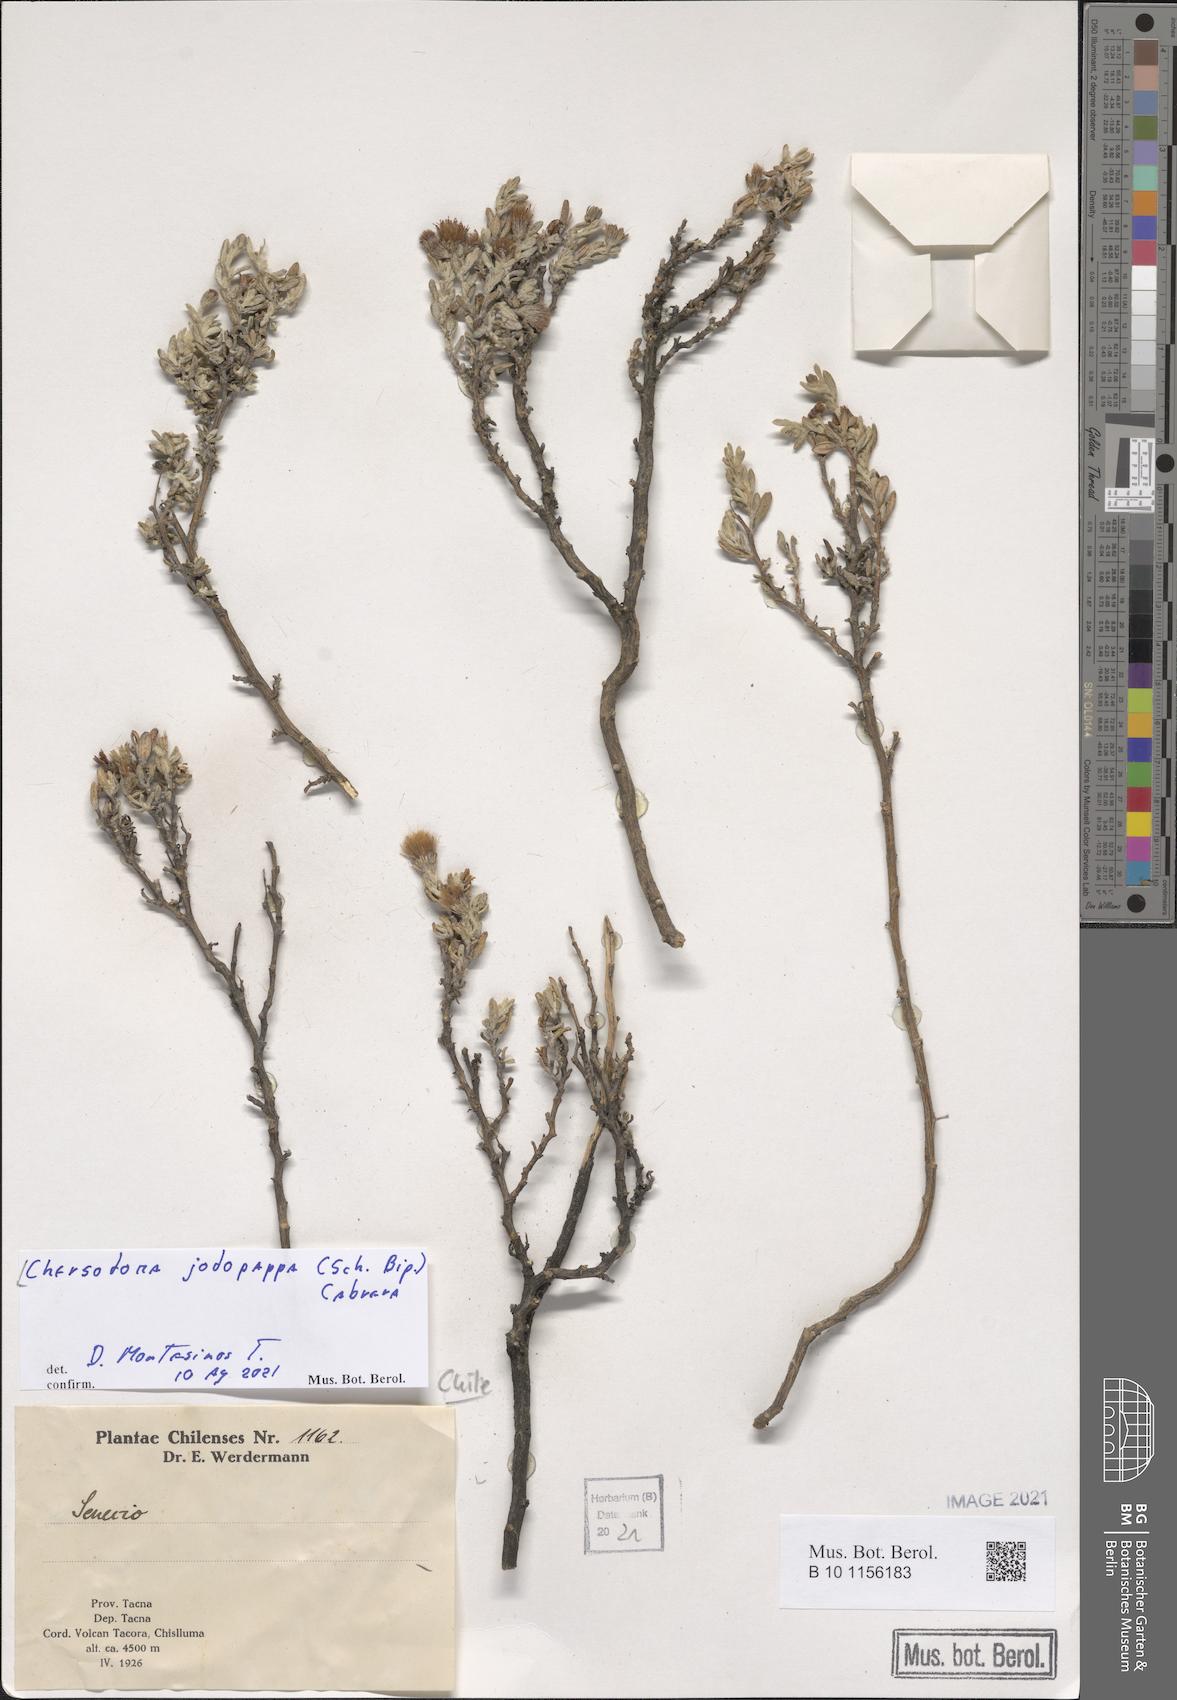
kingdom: Plantae
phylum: Tracheophyta
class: Magnoliopsida
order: Asterales
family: Asteraceae
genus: Chersodoma
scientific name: Chersodoma jodopappa
